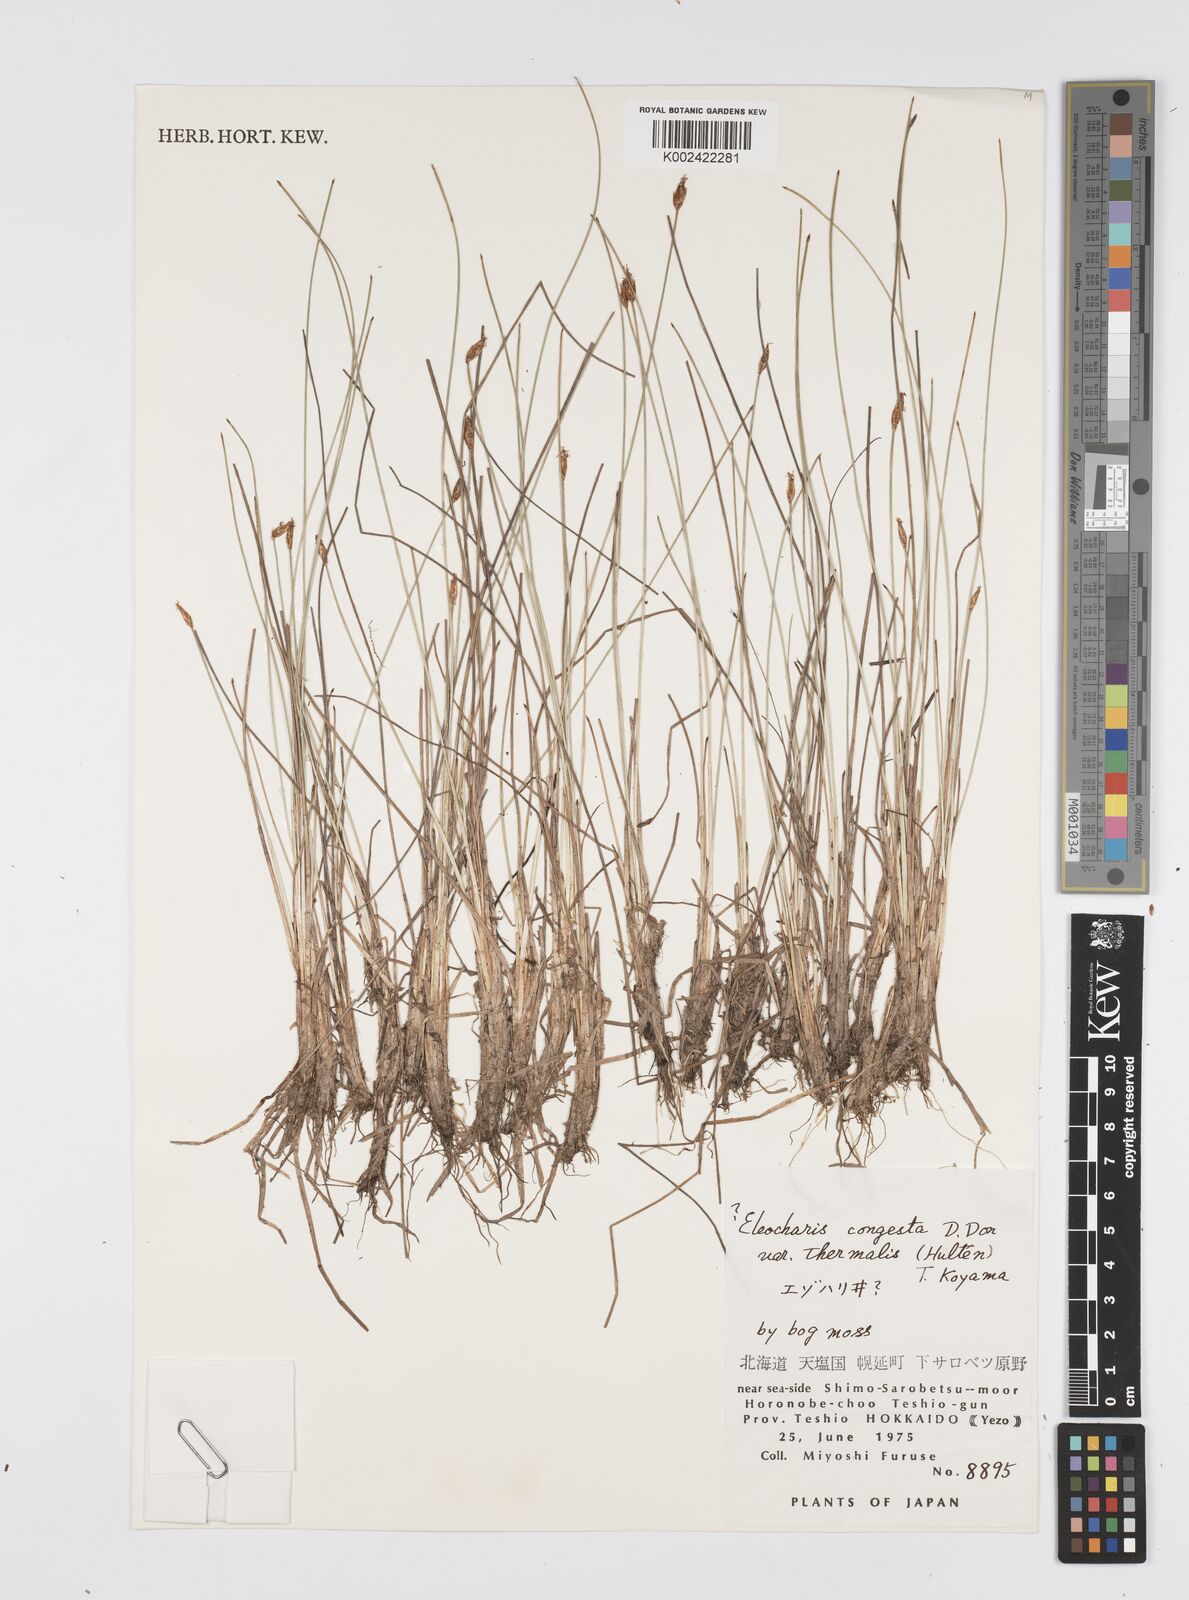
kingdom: Plantae
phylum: Tracheophyta
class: Liliopsida
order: Poales
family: Cyperaceae
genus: Eleocharis
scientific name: Eleocharis congesta
